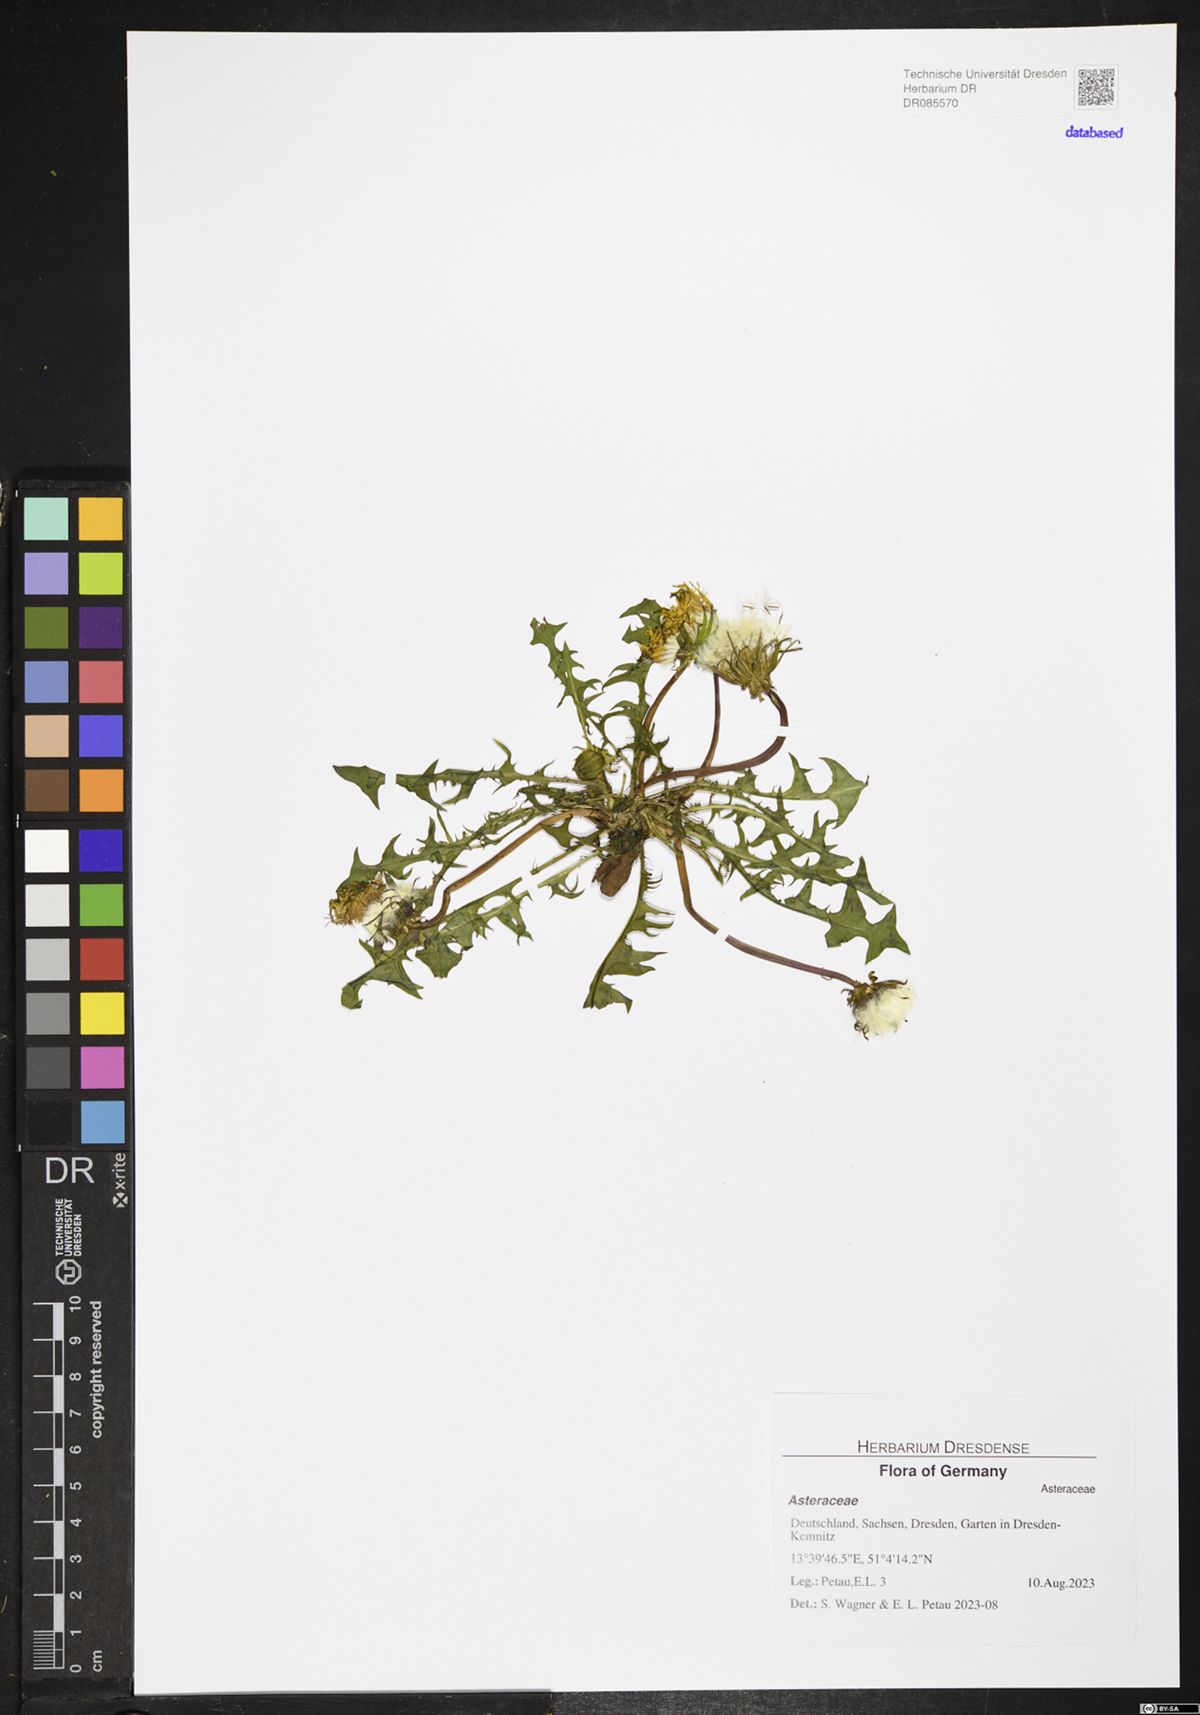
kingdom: Plantae
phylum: Tracheophyta
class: Magnoliopsida
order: Asterales
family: Asteraceae
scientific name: Asteraceae
